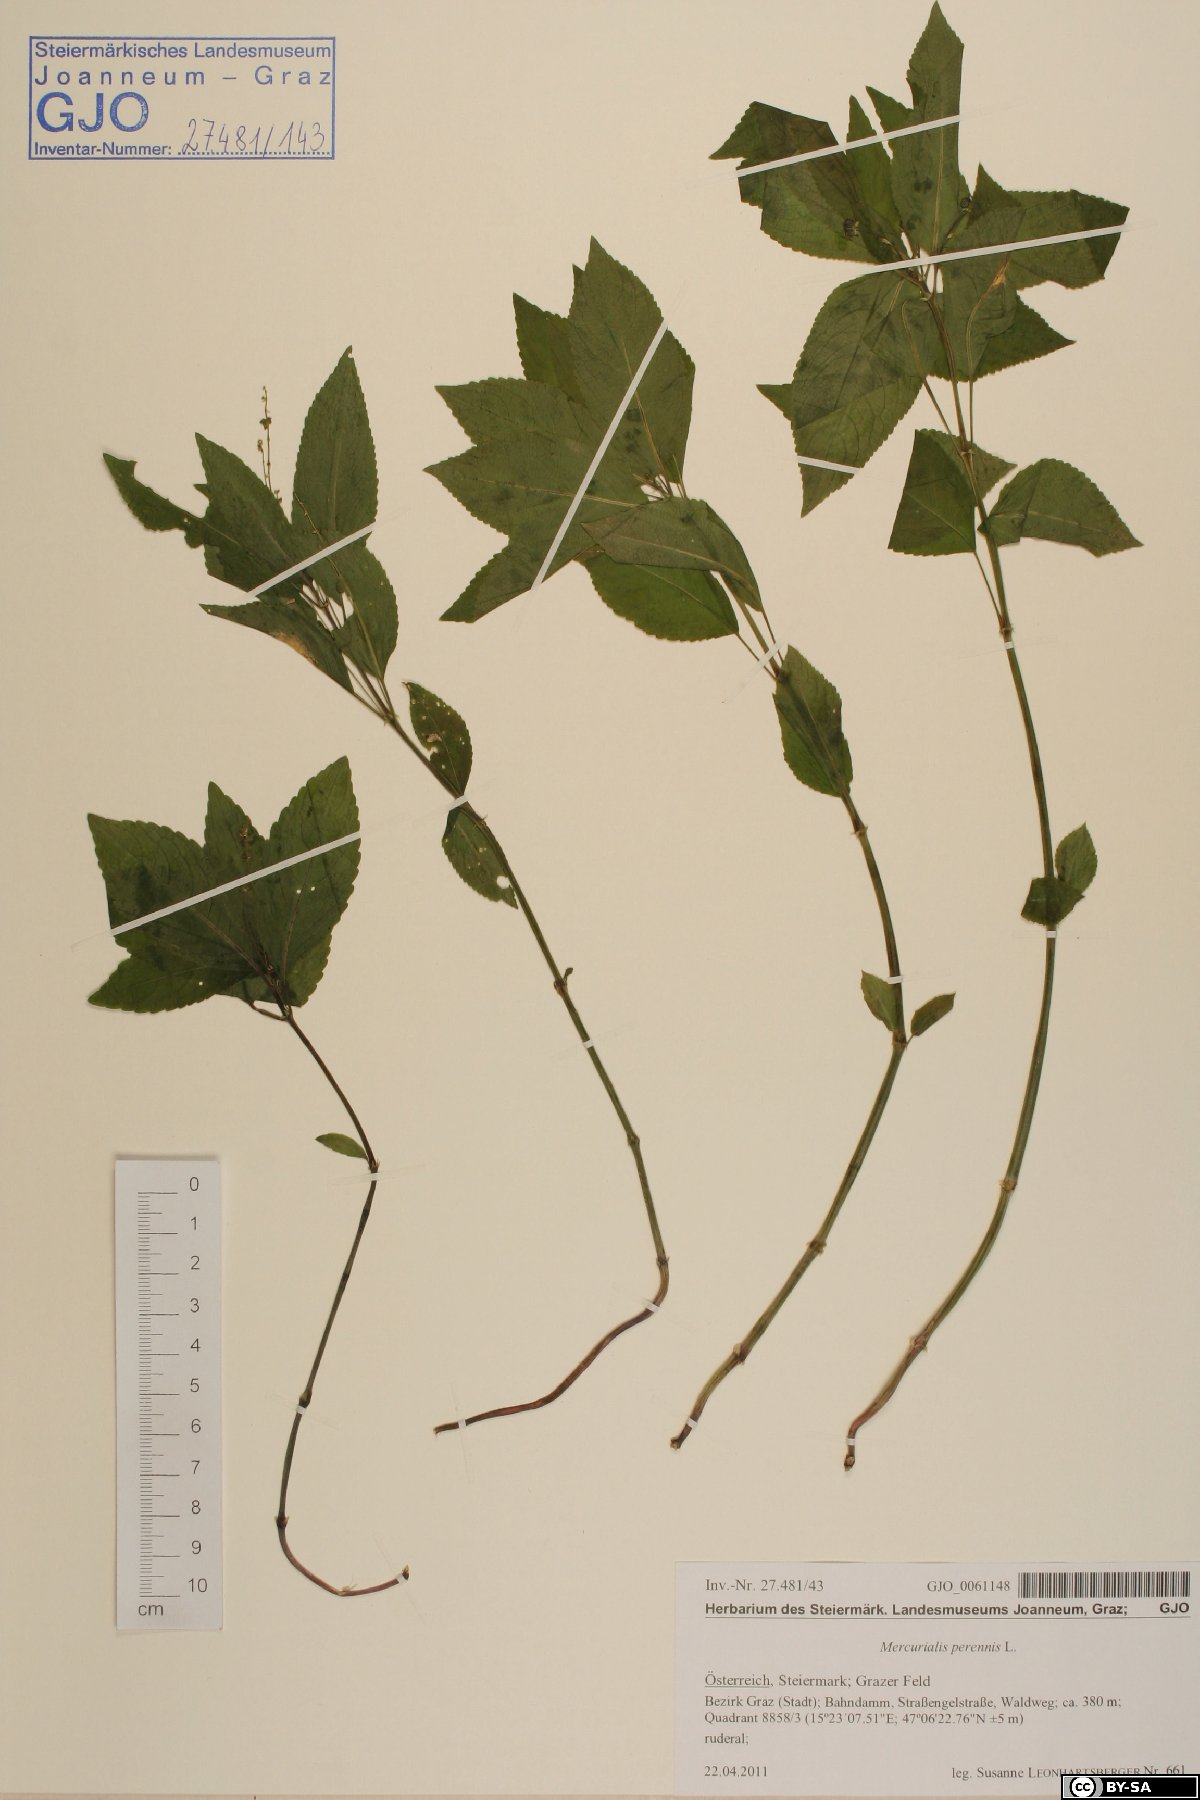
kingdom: Plantae
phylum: Tracheophyta
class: Magnoliopsida
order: Malpighiales
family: Euphorbiaceae
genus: Mercurialis
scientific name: Mercurialis perennis
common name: Dog mercury
